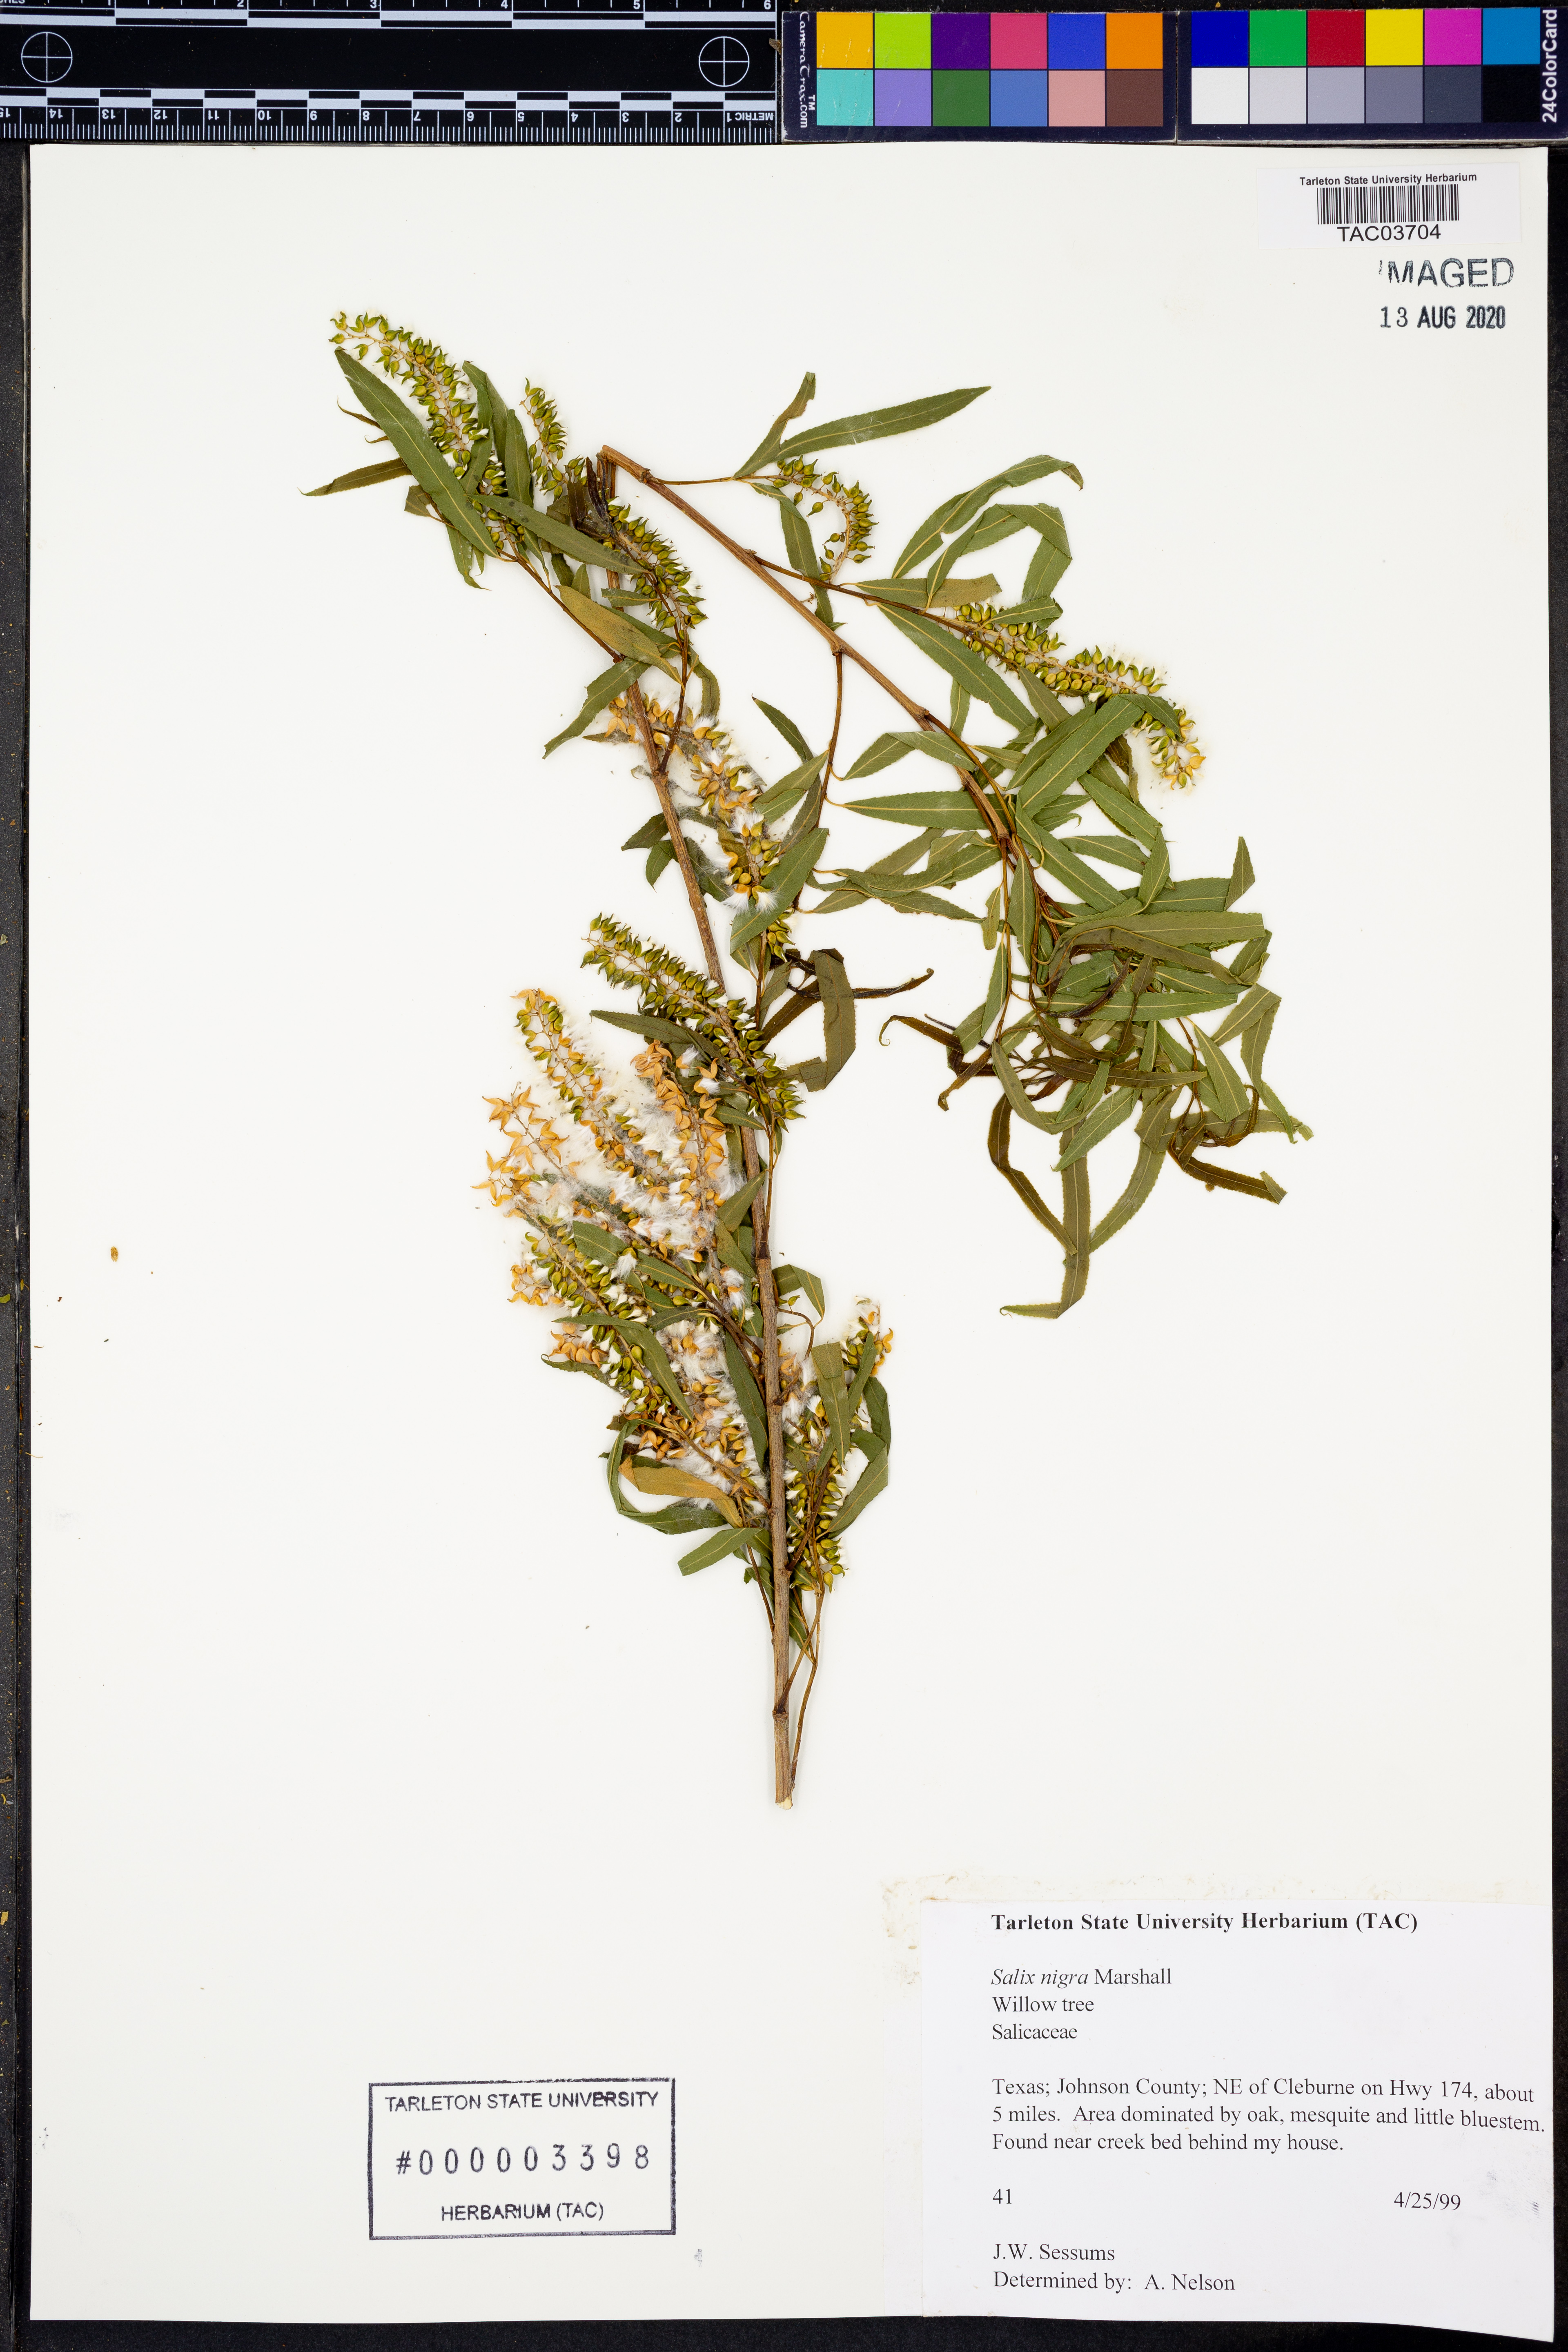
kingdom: Plantae
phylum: Tracheophyta
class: Magnoliopsida
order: Malpighiales
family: Salicaceae
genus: Salix
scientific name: Salix nigra
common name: Black willow
